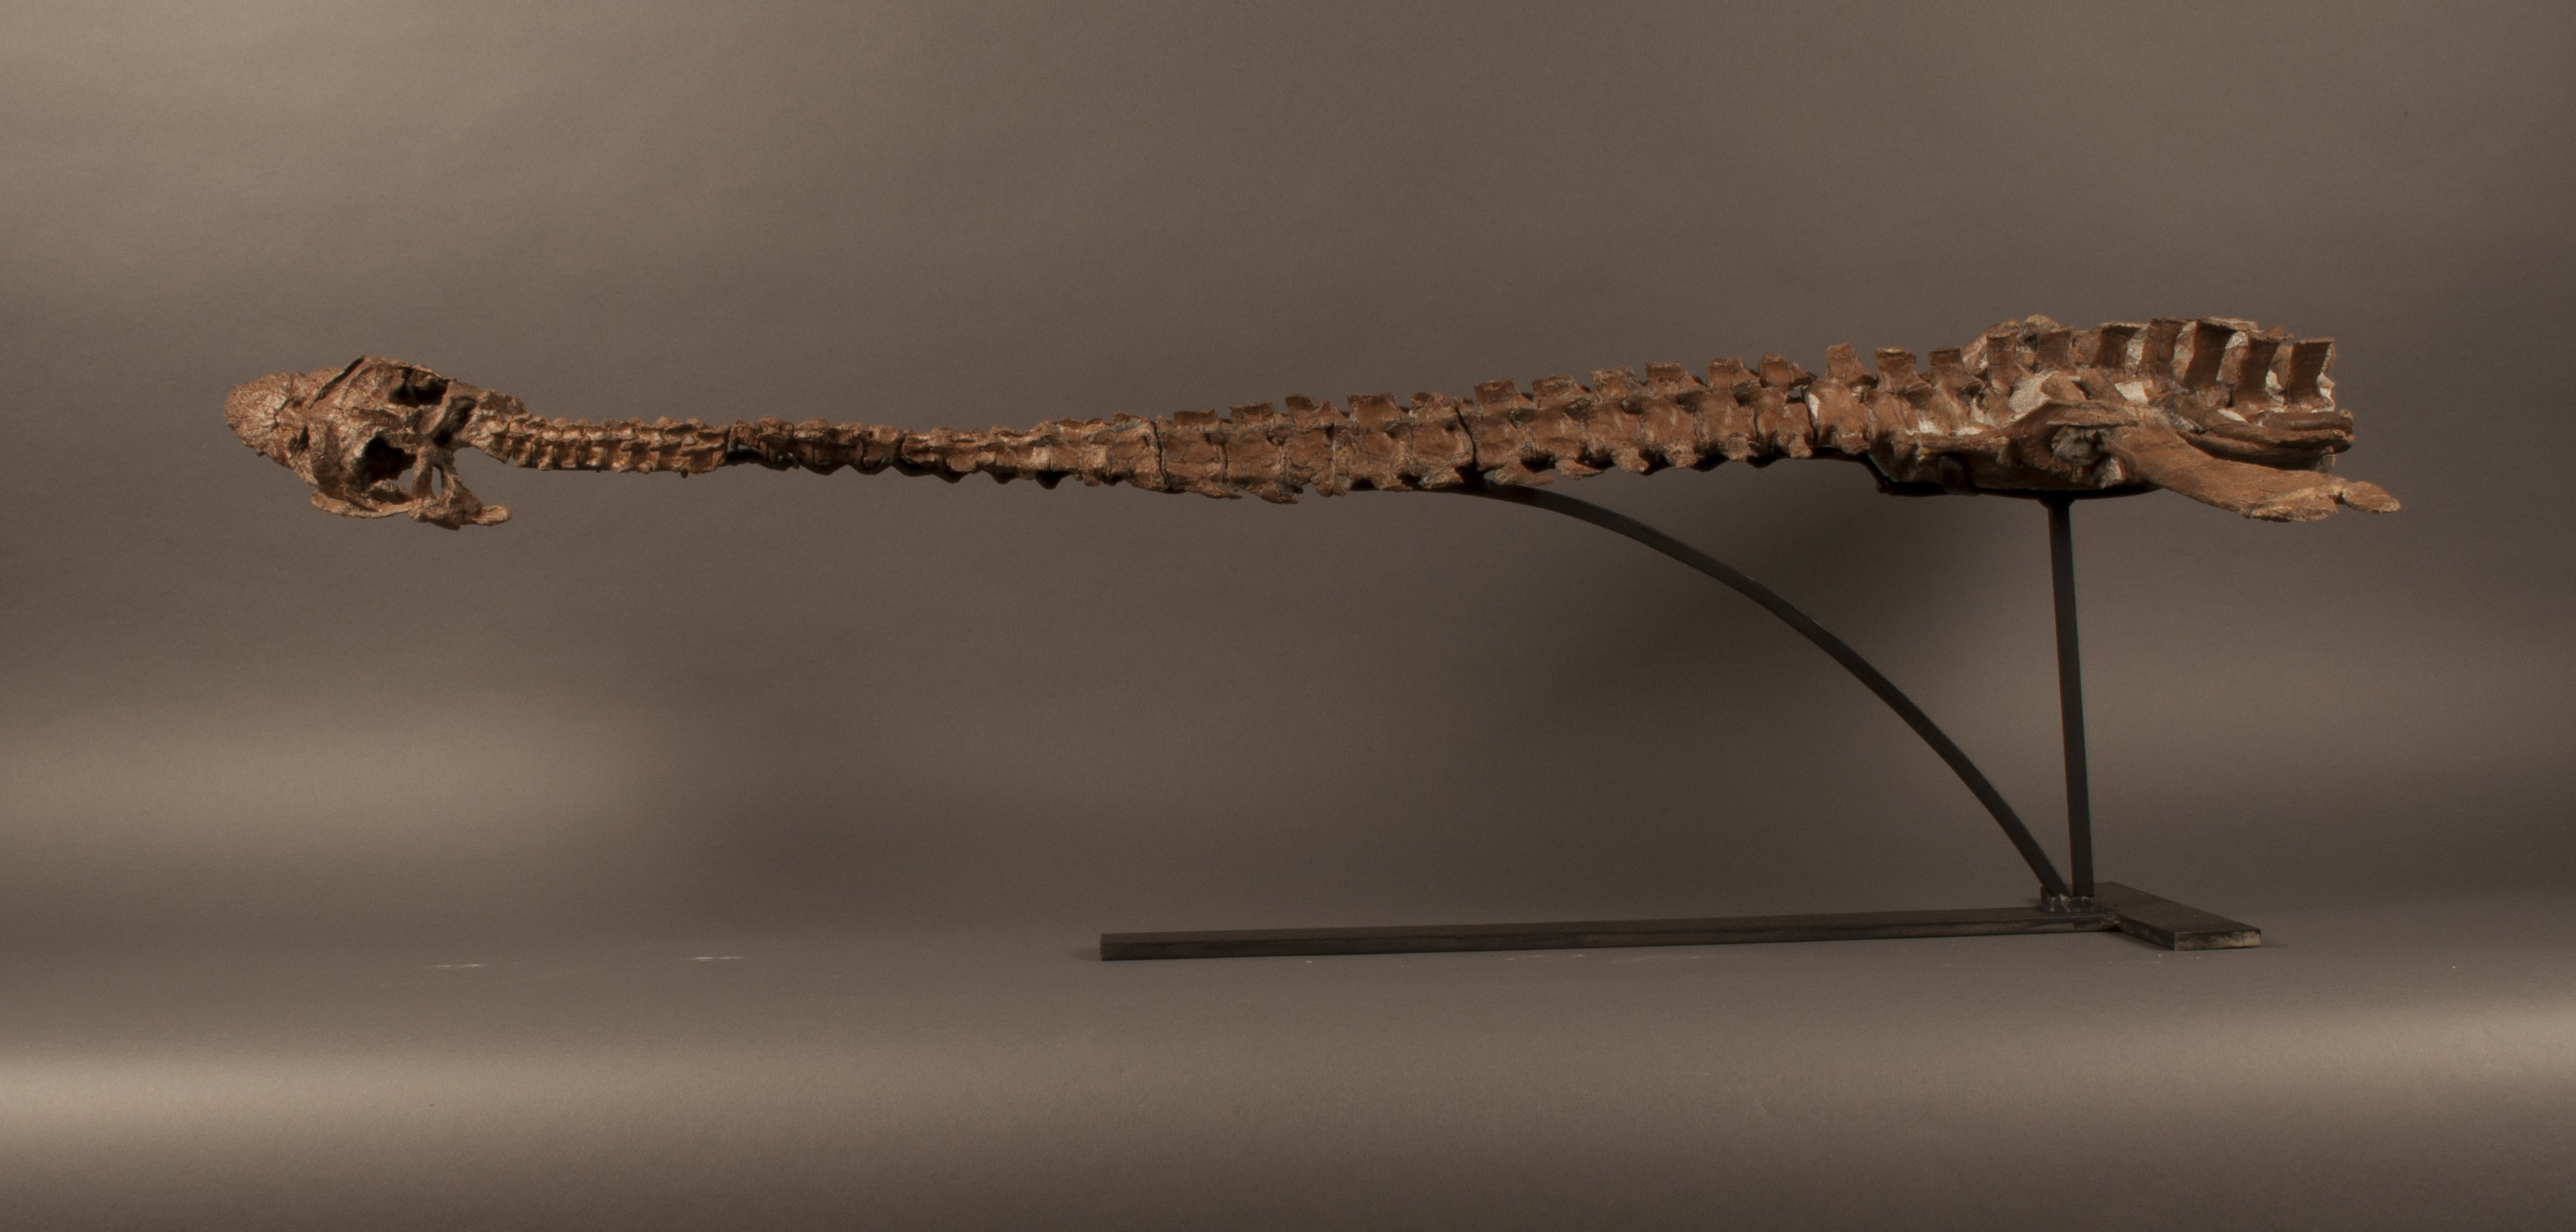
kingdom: Animalia
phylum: Chordata
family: Microcleididae
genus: Microcleidus
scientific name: Microcleidus melusinae
